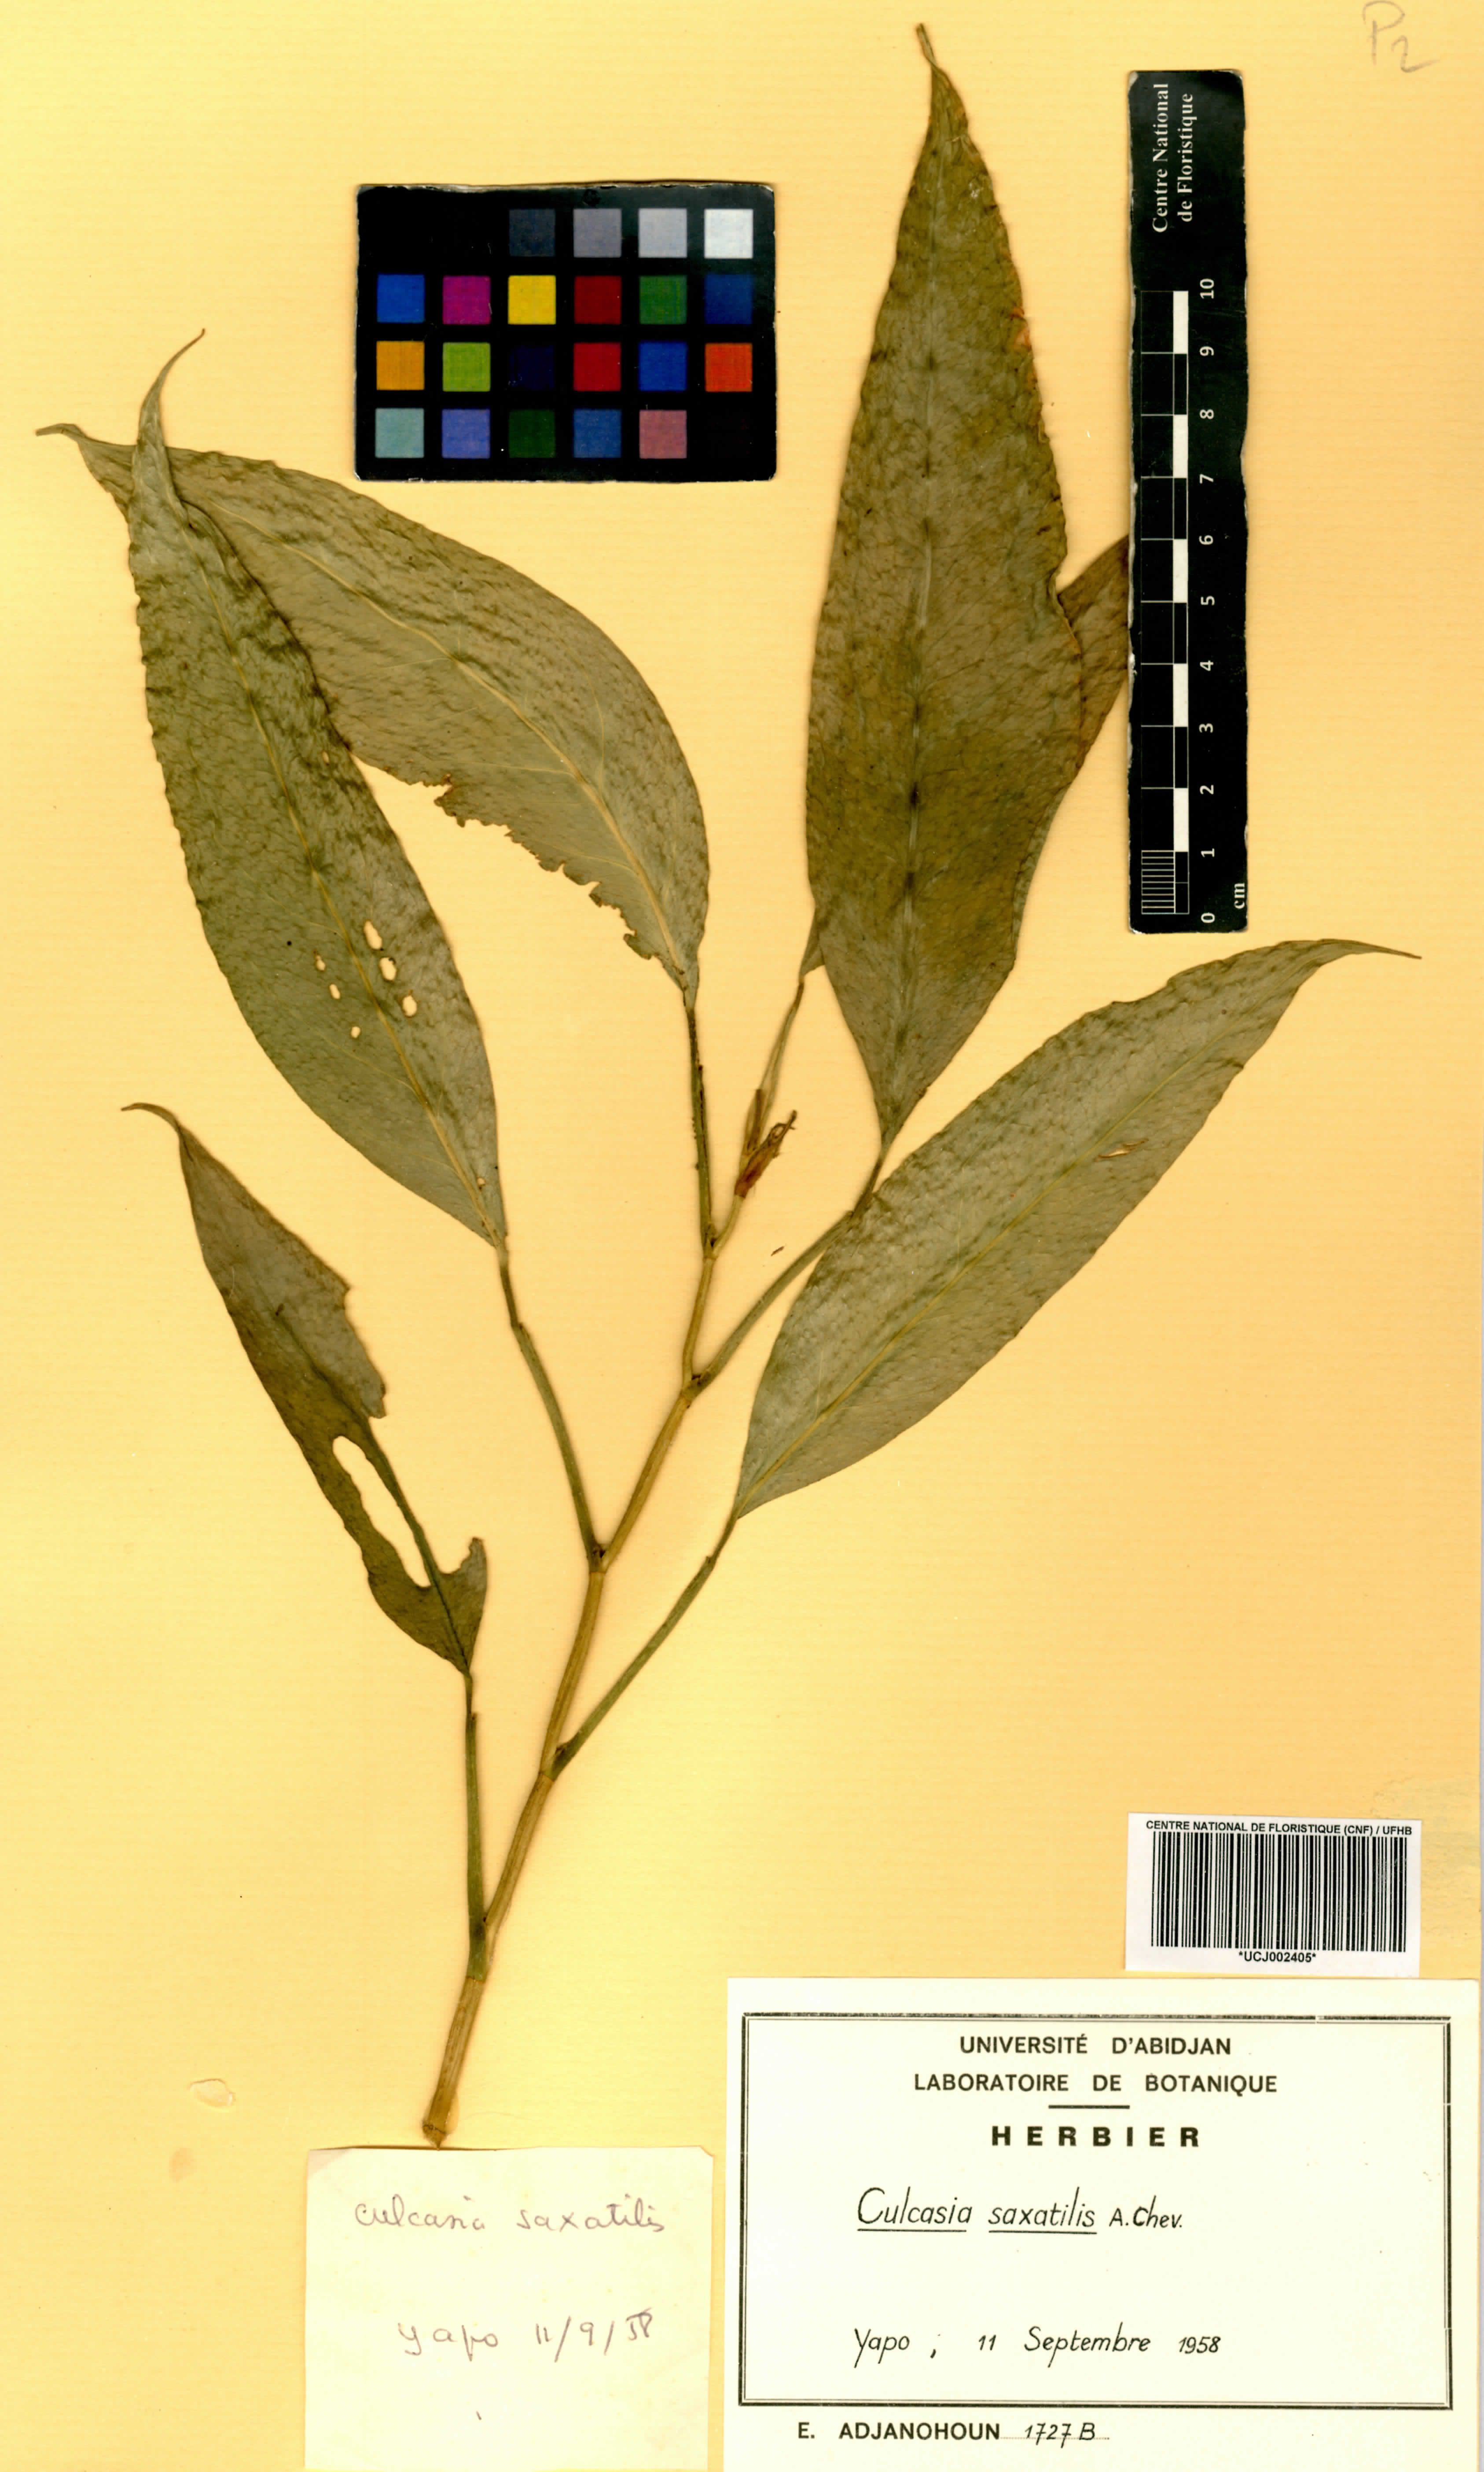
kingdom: Plantae
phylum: Tracheophyta
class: Liliopsida
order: Alismatales
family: Araceae
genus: Culcasia
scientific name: Culcasia scandens
